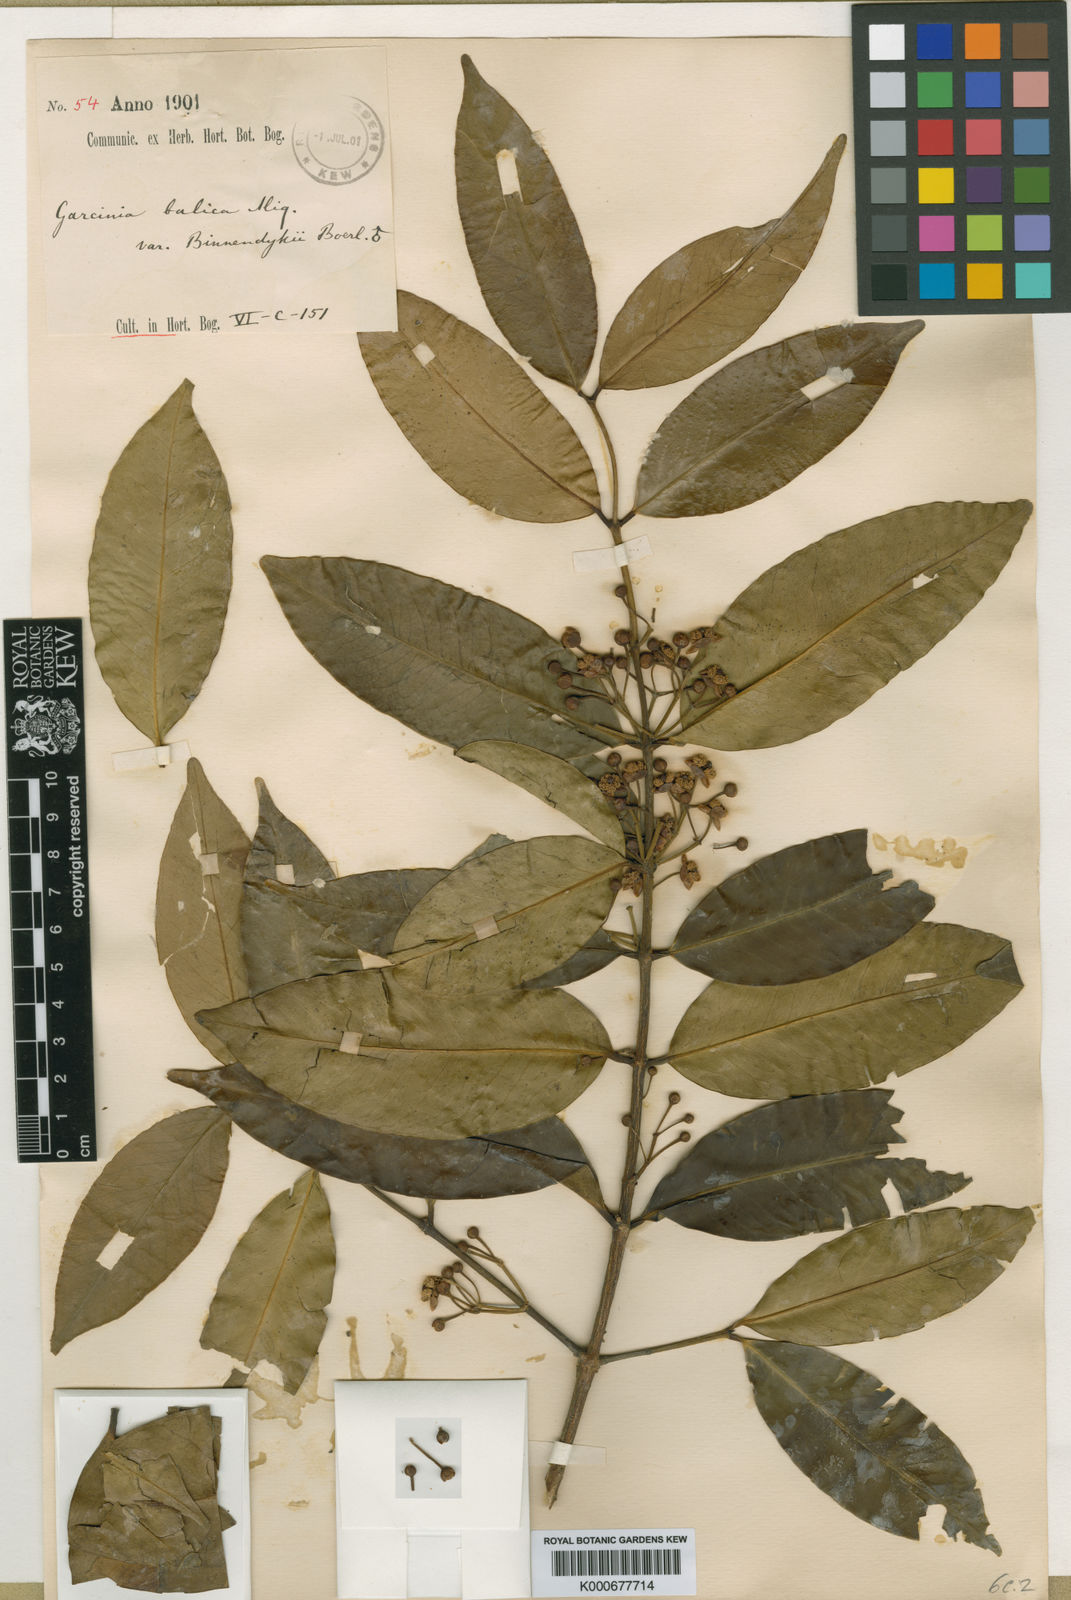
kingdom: Plantae
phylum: Tracheophyta
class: Magnoliopsida
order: Malpighiales
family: Clusiaceae
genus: Garcinia
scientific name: Garcinia balica
